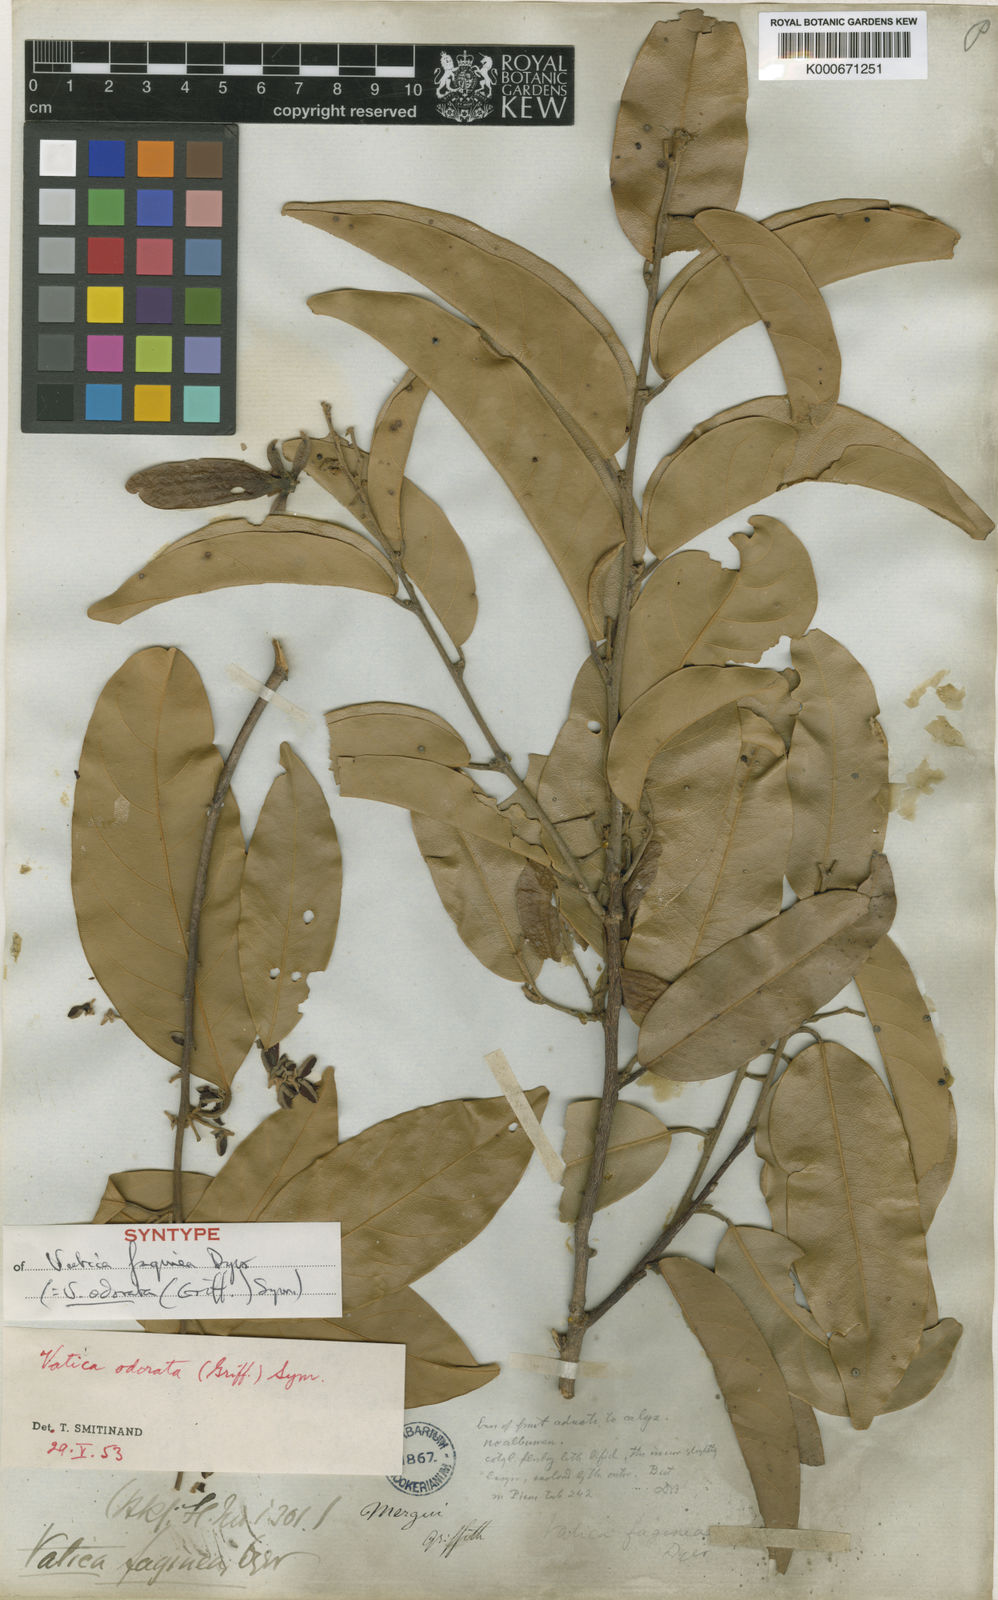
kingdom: Plantae
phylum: Tracheophyta
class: Magnoliopsida
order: Malvales
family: Dipterocarpaceae
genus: Vatica
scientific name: Vatica odorata
